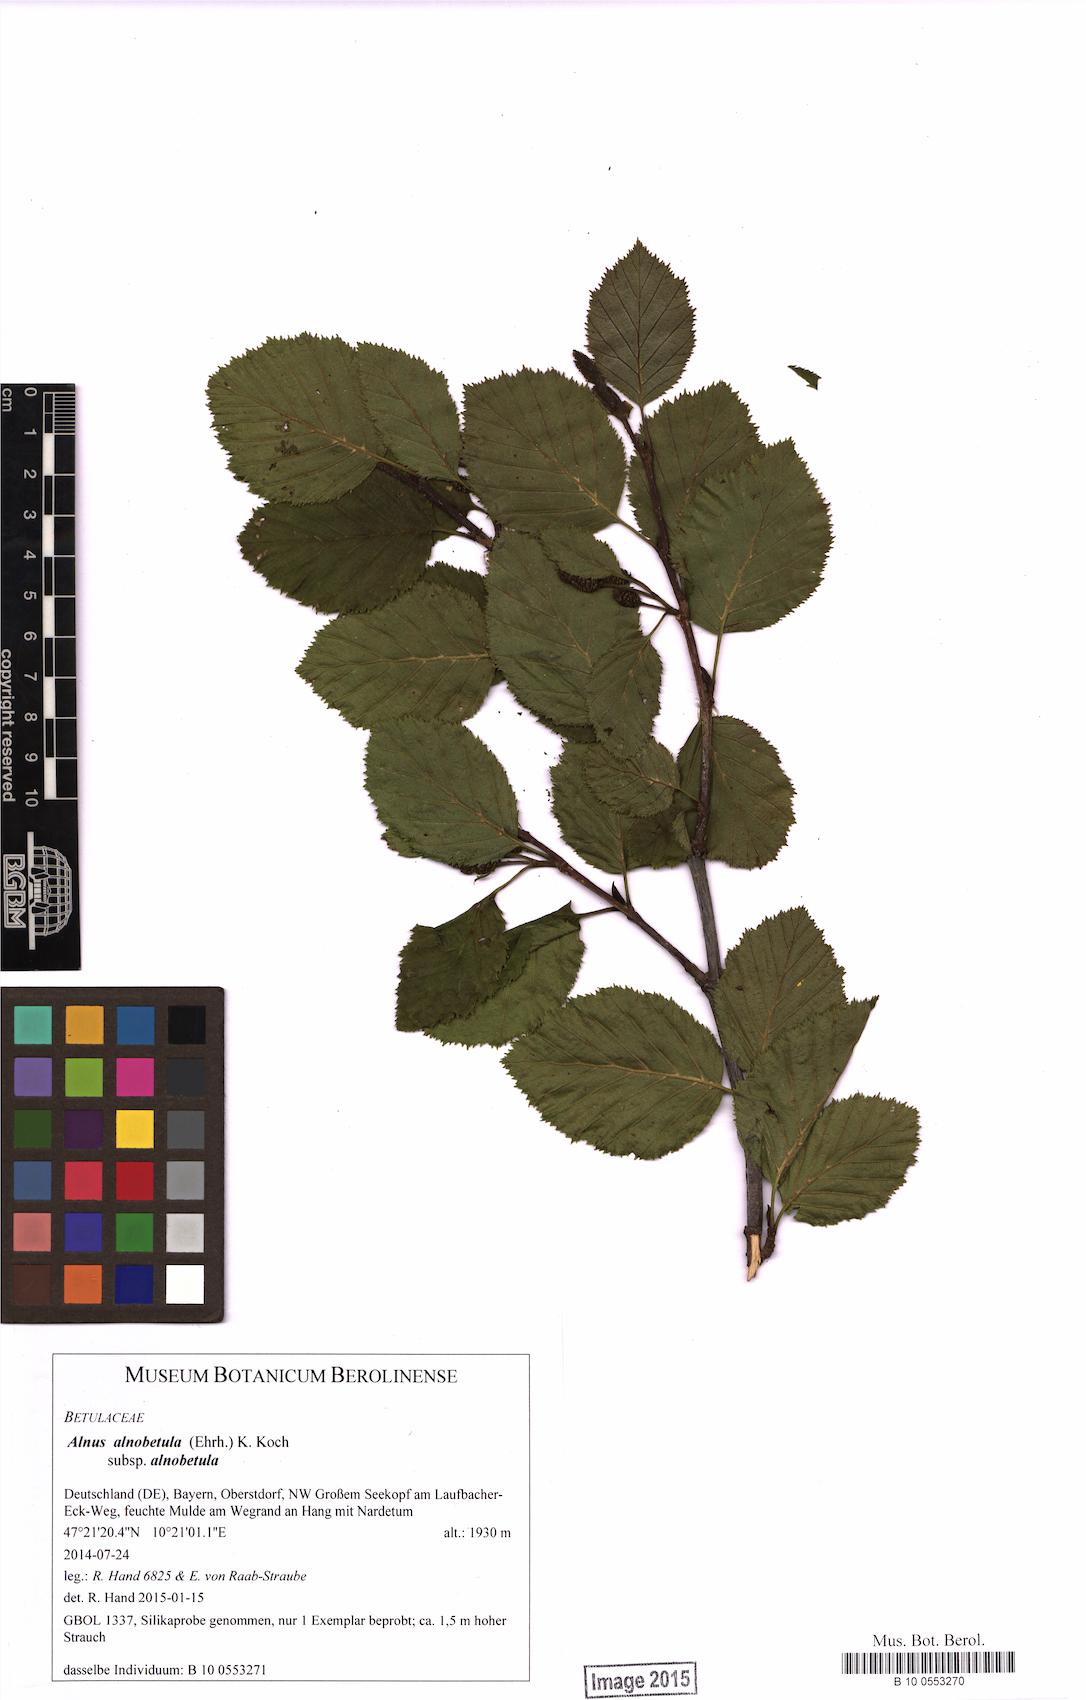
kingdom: Plantae
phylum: Tracheophyta
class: Magnoliopsida
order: Fagales
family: Betulaceae
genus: Alnus
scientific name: Alnus alnobetula
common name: Green alder
